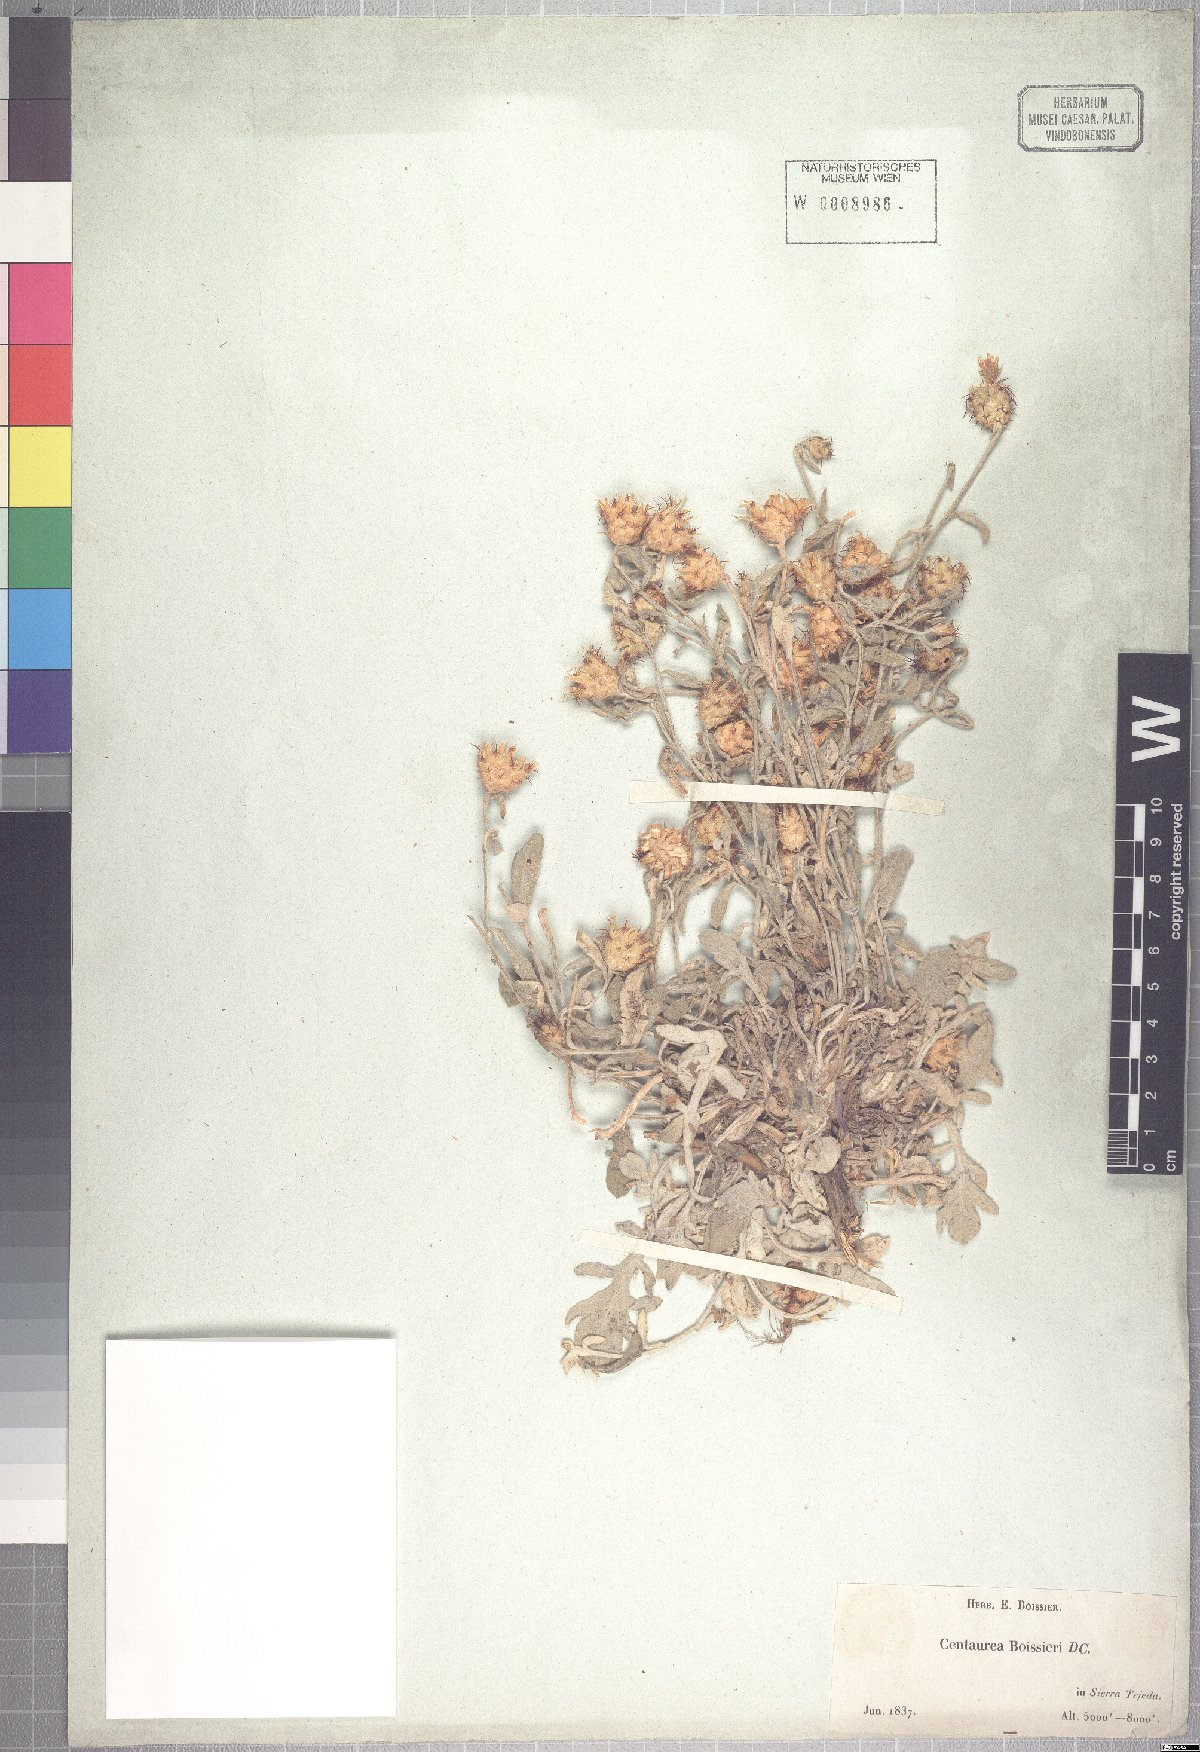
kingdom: Plantae
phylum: Tracheophyta
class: Magnoliopsida
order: Asterales
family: Asteraceae
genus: Centaurea
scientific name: Centaurea boissieri
